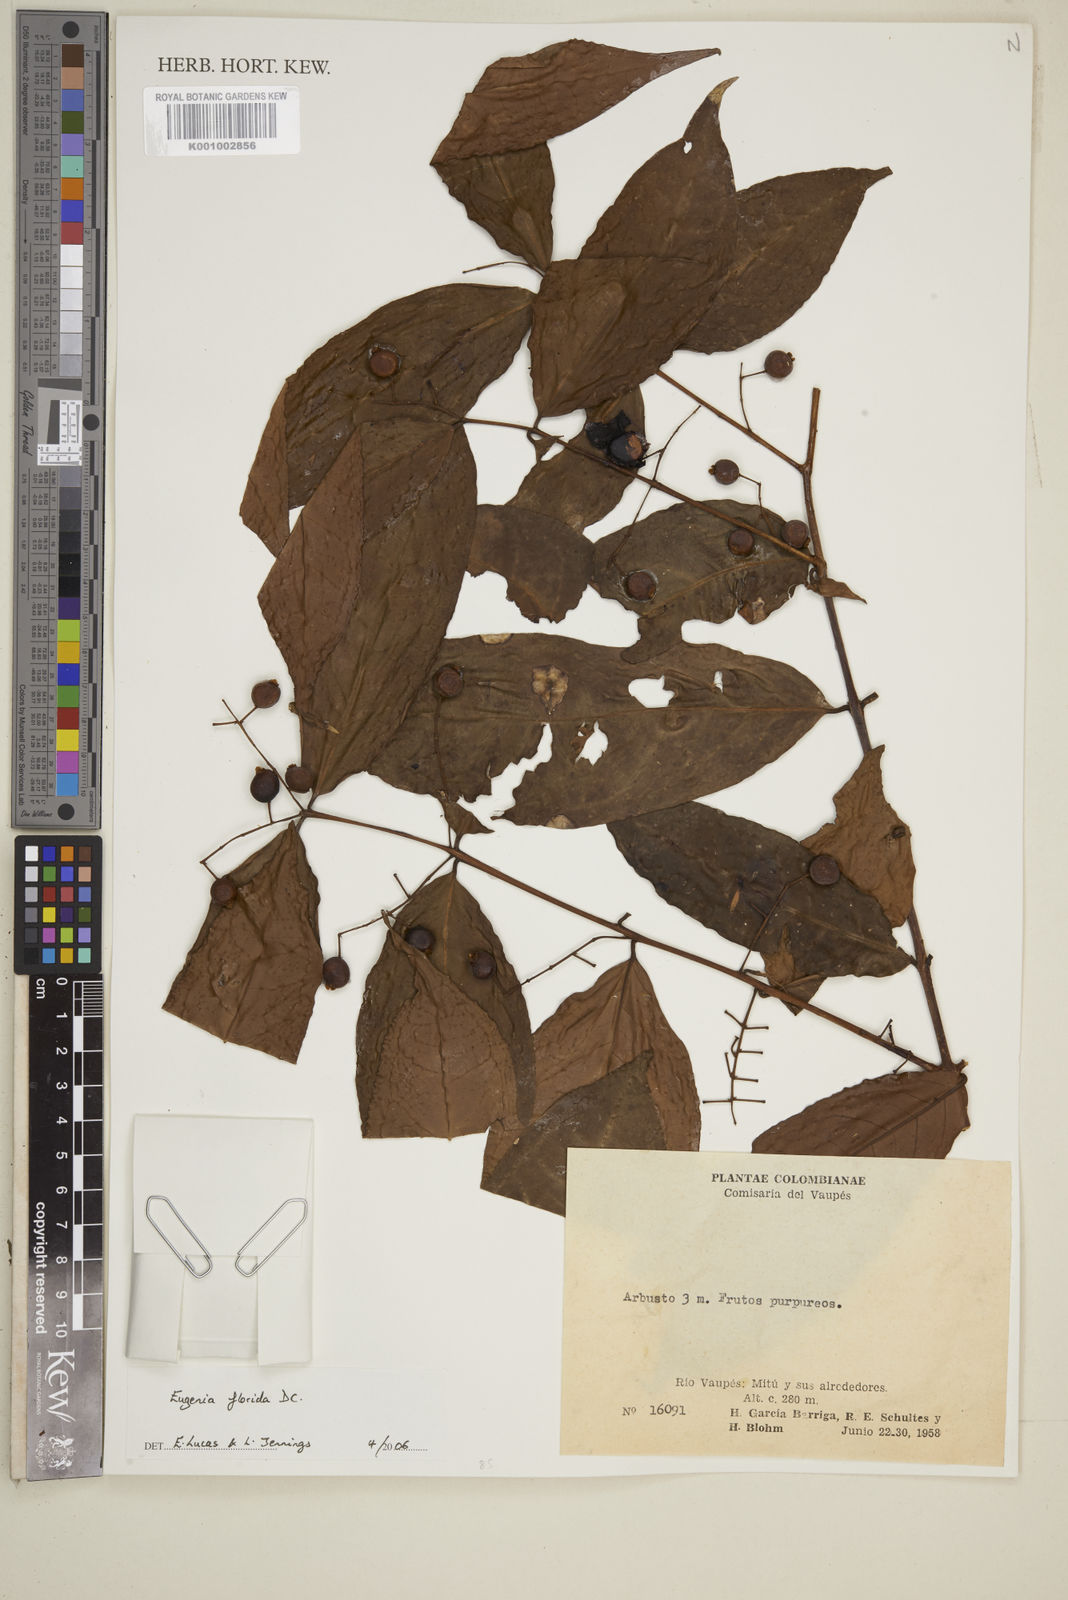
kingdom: Plantae
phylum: Tracheophyta
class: Magnoliopsida
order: Myrtales
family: Myrtaceae
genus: Eugenia
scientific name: Eugenia florida
